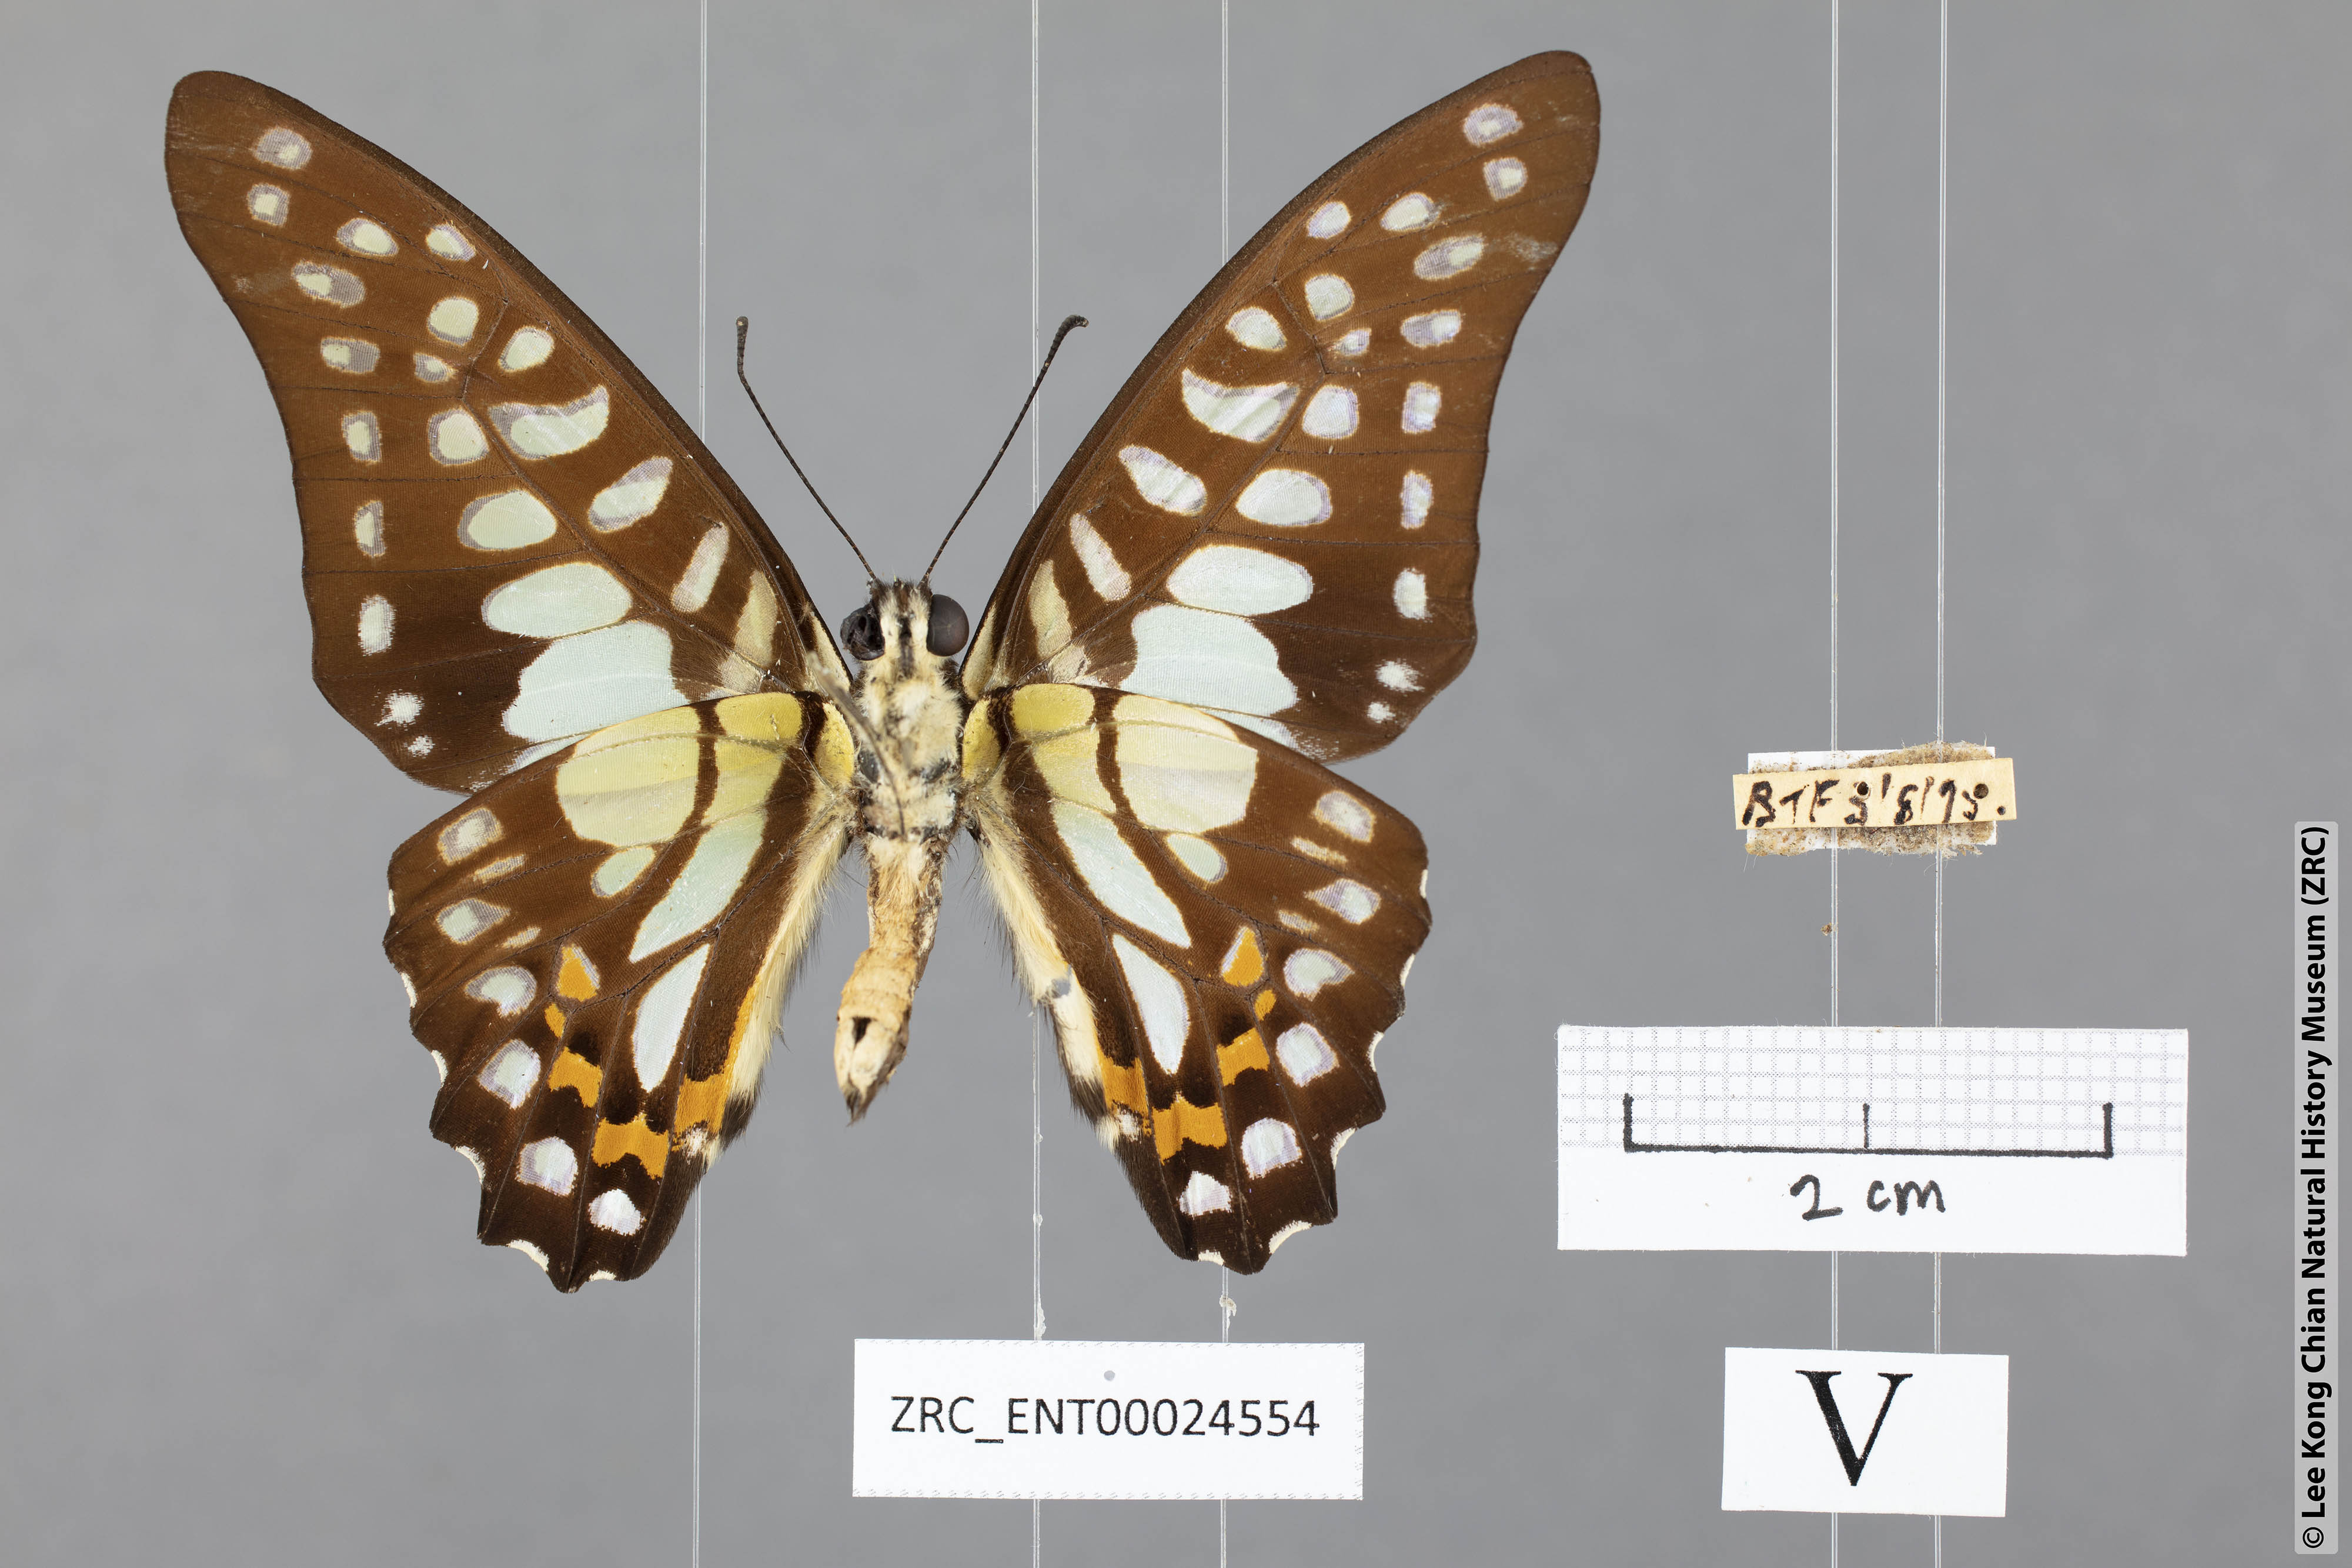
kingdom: Animalia
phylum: Arthropoda
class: Insecta
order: Lepidoptera
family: Papilionidae
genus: Graphium
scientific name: Graphium bathycles
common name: Veined jay
